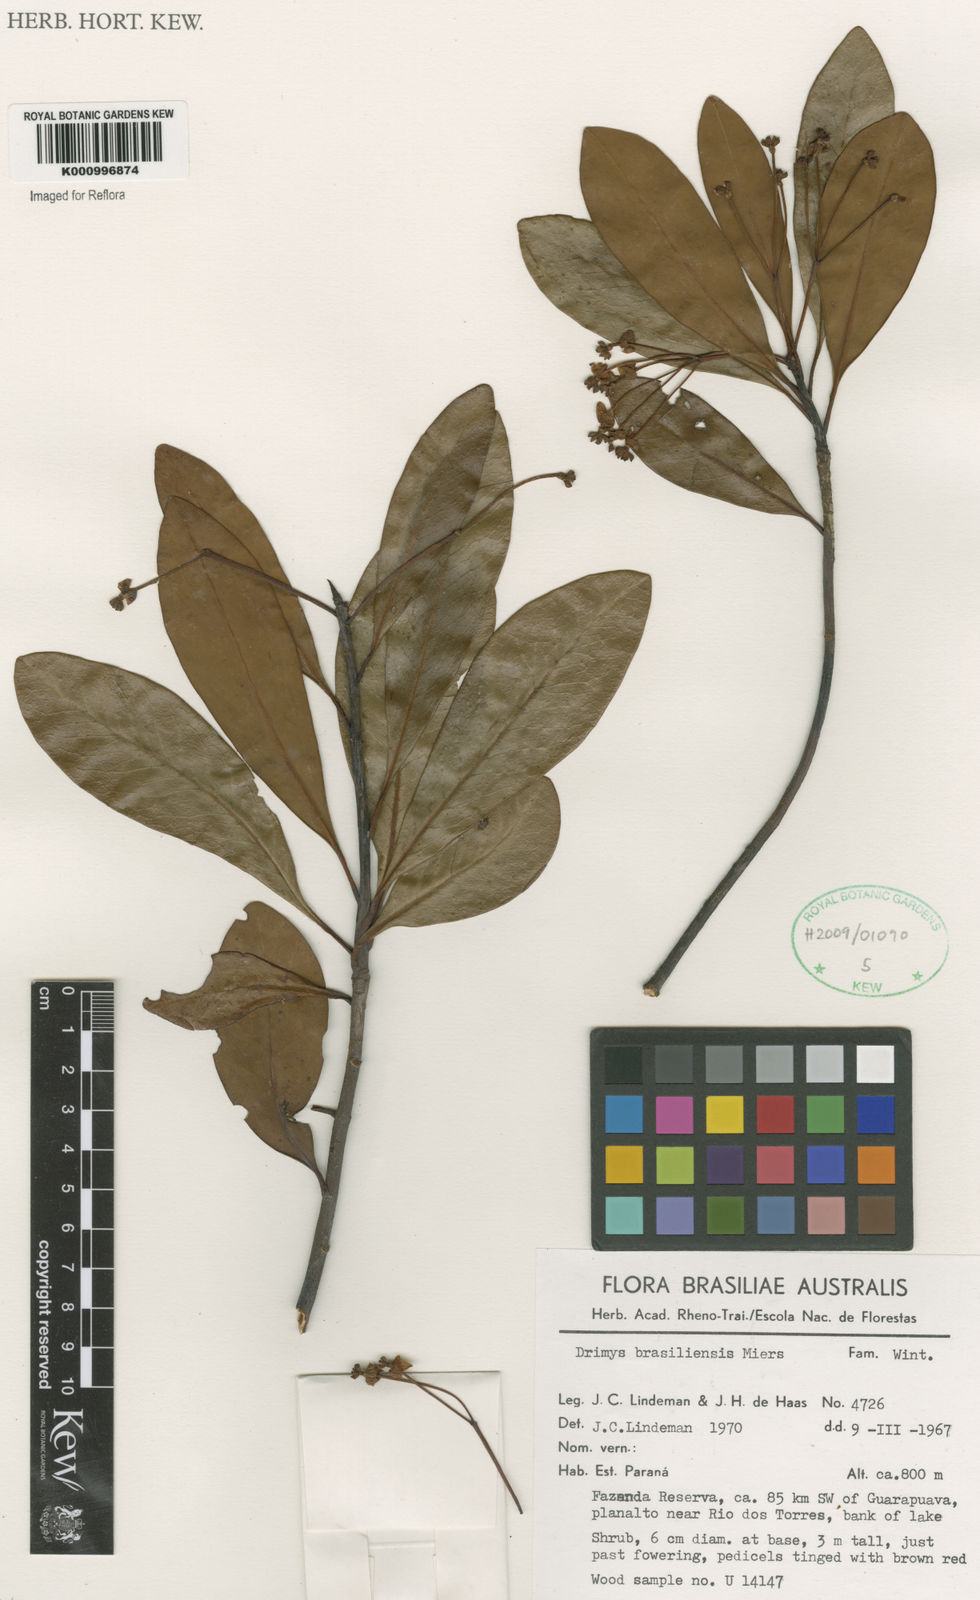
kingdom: Plantae
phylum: Tracheophyta
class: Magnoliopsida
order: Canellales
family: Winteraceae
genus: Drimys
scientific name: Drimys brasiliensis
